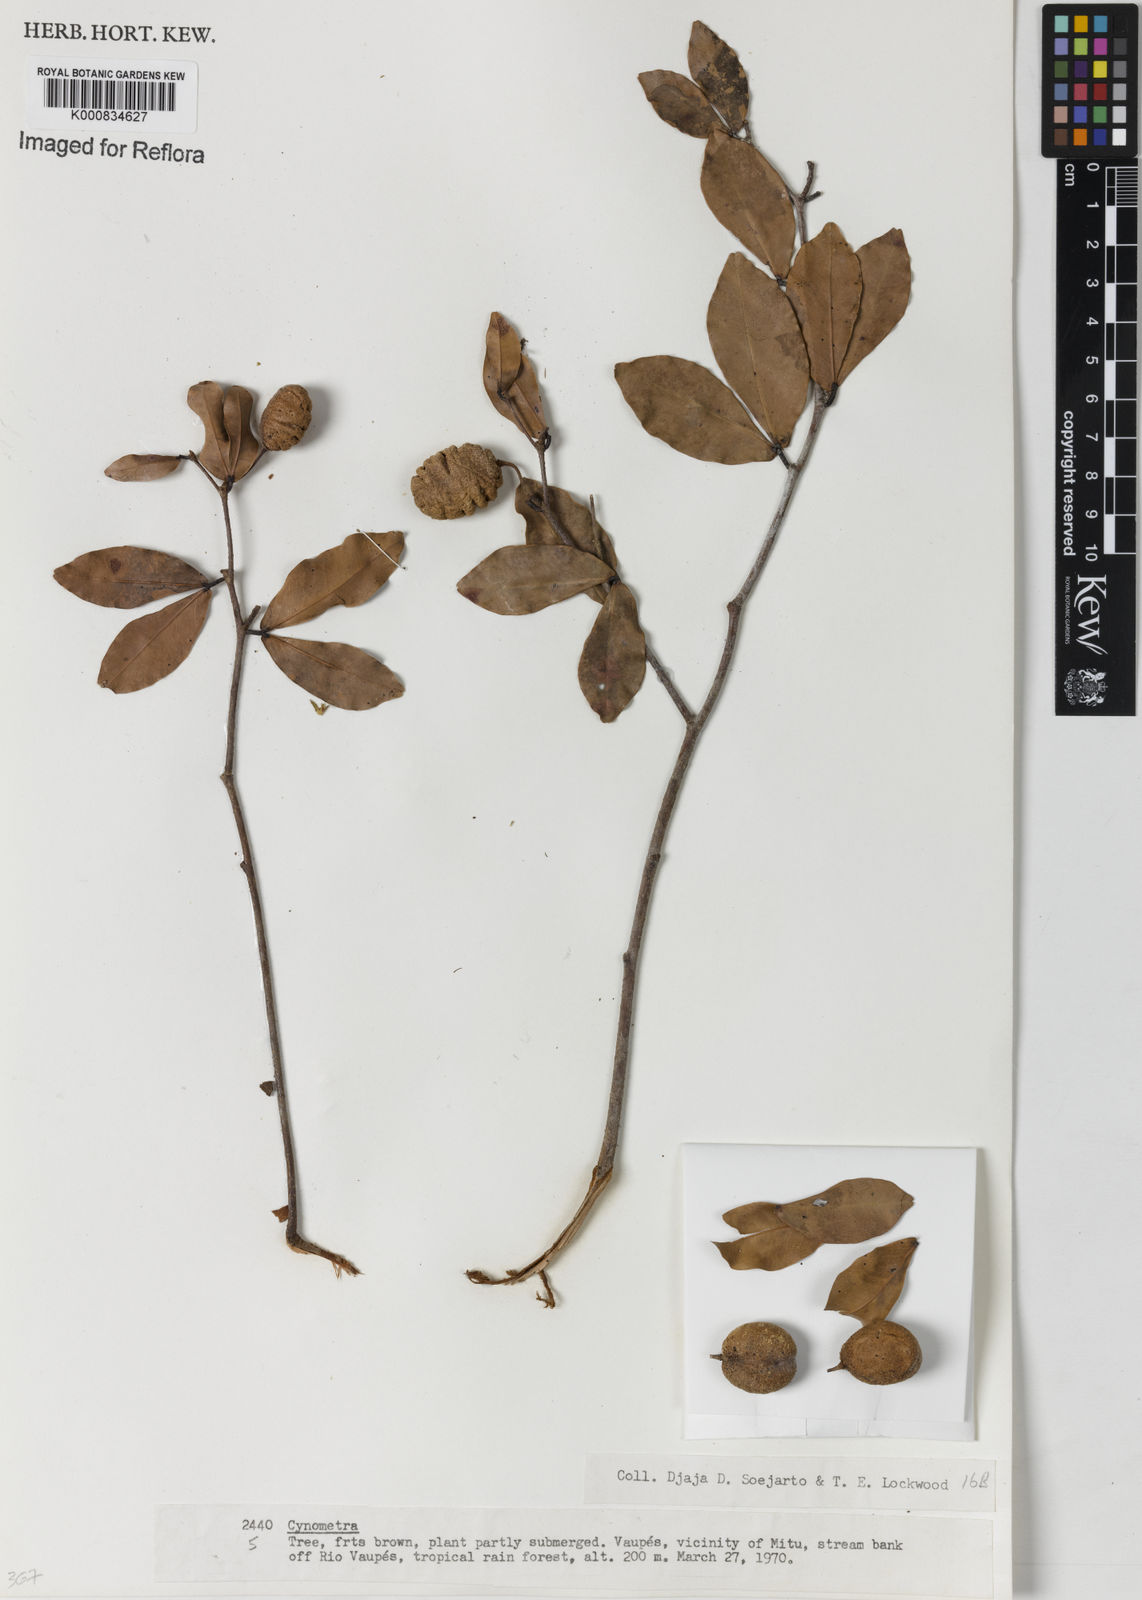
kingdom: Plantae
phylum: Tracheophyta
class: Magnoliopsida
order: Fabales
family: Fabaceae
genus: Cynometra
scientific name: Cynometra
